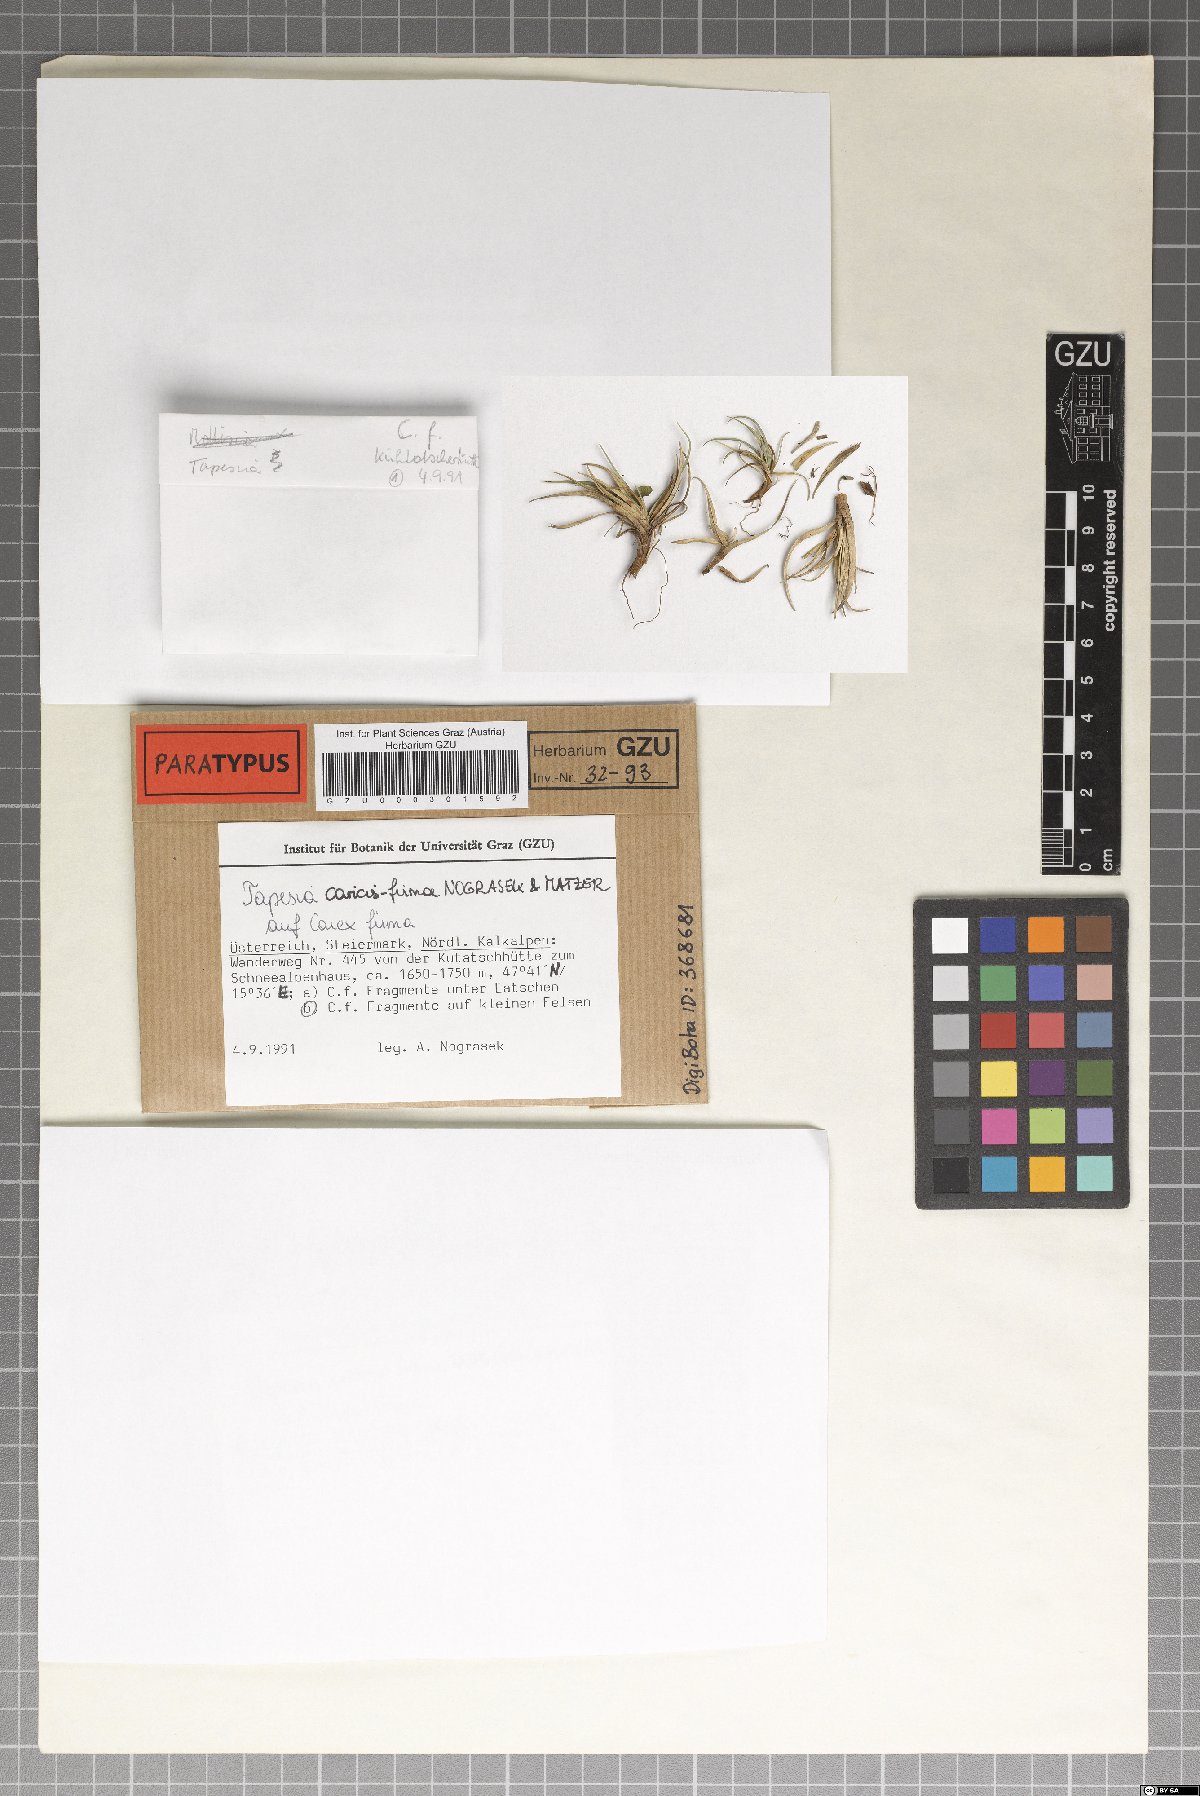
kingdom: Fungi
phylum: Ascomycota
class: Leotiomycetes
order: Helotiales
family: Mollisiaceae
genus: Tapesia
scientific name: Tapesia caricis-firmae
